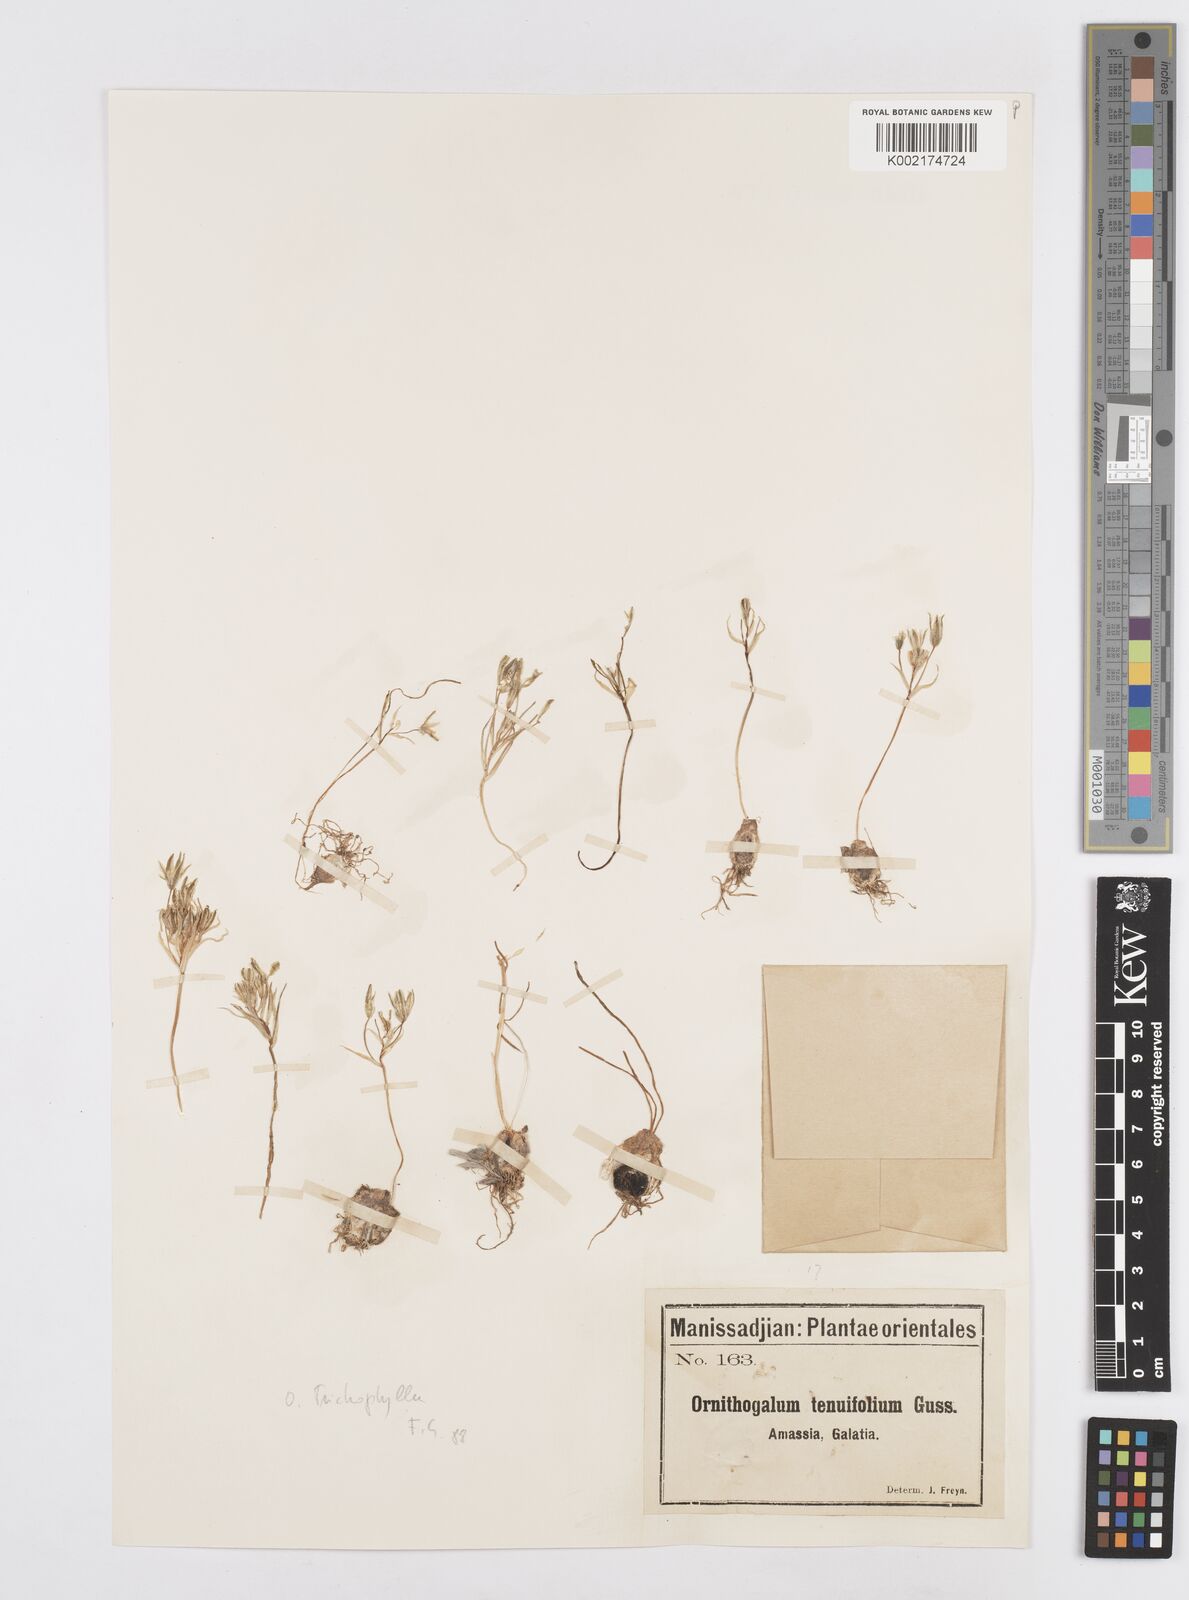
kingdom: Plantae
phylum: Tracheophyta
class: Liliopsida
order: Asparagales
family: Asparagaceae
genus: Ornithogalum
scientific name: Ornithogalum
